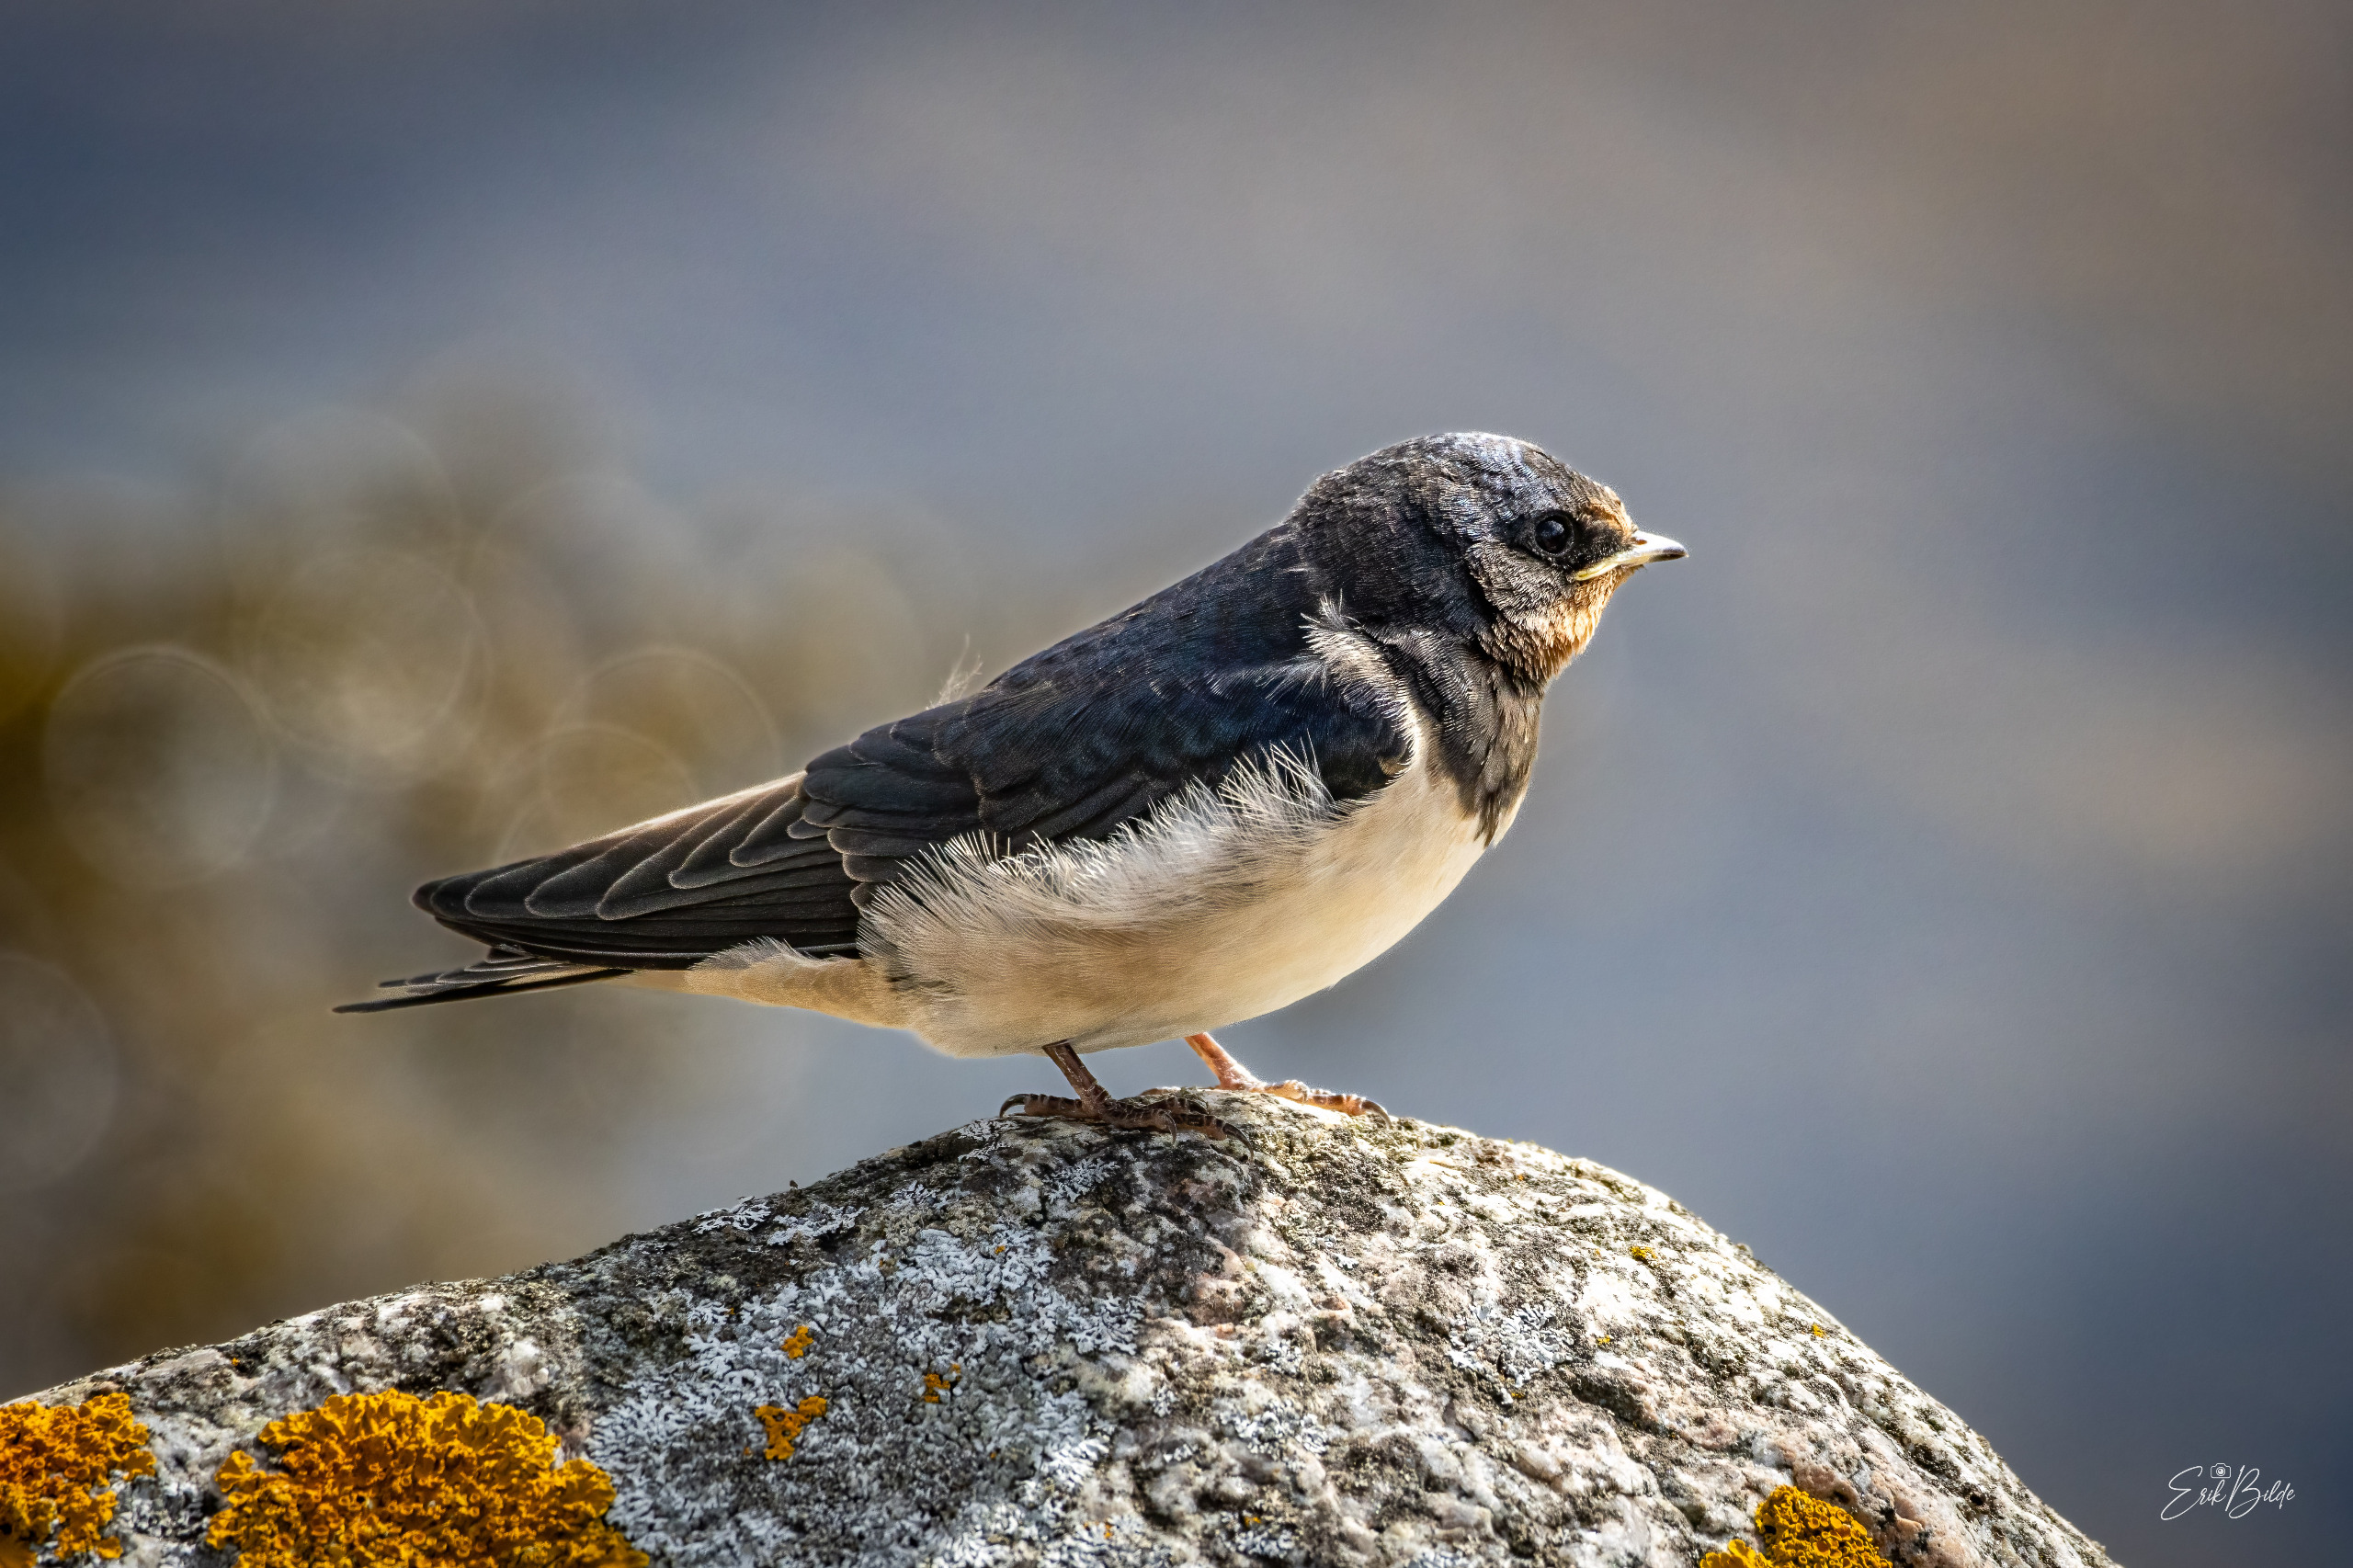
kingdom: Animalia
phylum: Chordata
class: Aves
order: Passeriformes
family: Hirundinidae
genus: Hirundo
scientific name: Hirundo rustica
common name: Landsvale
